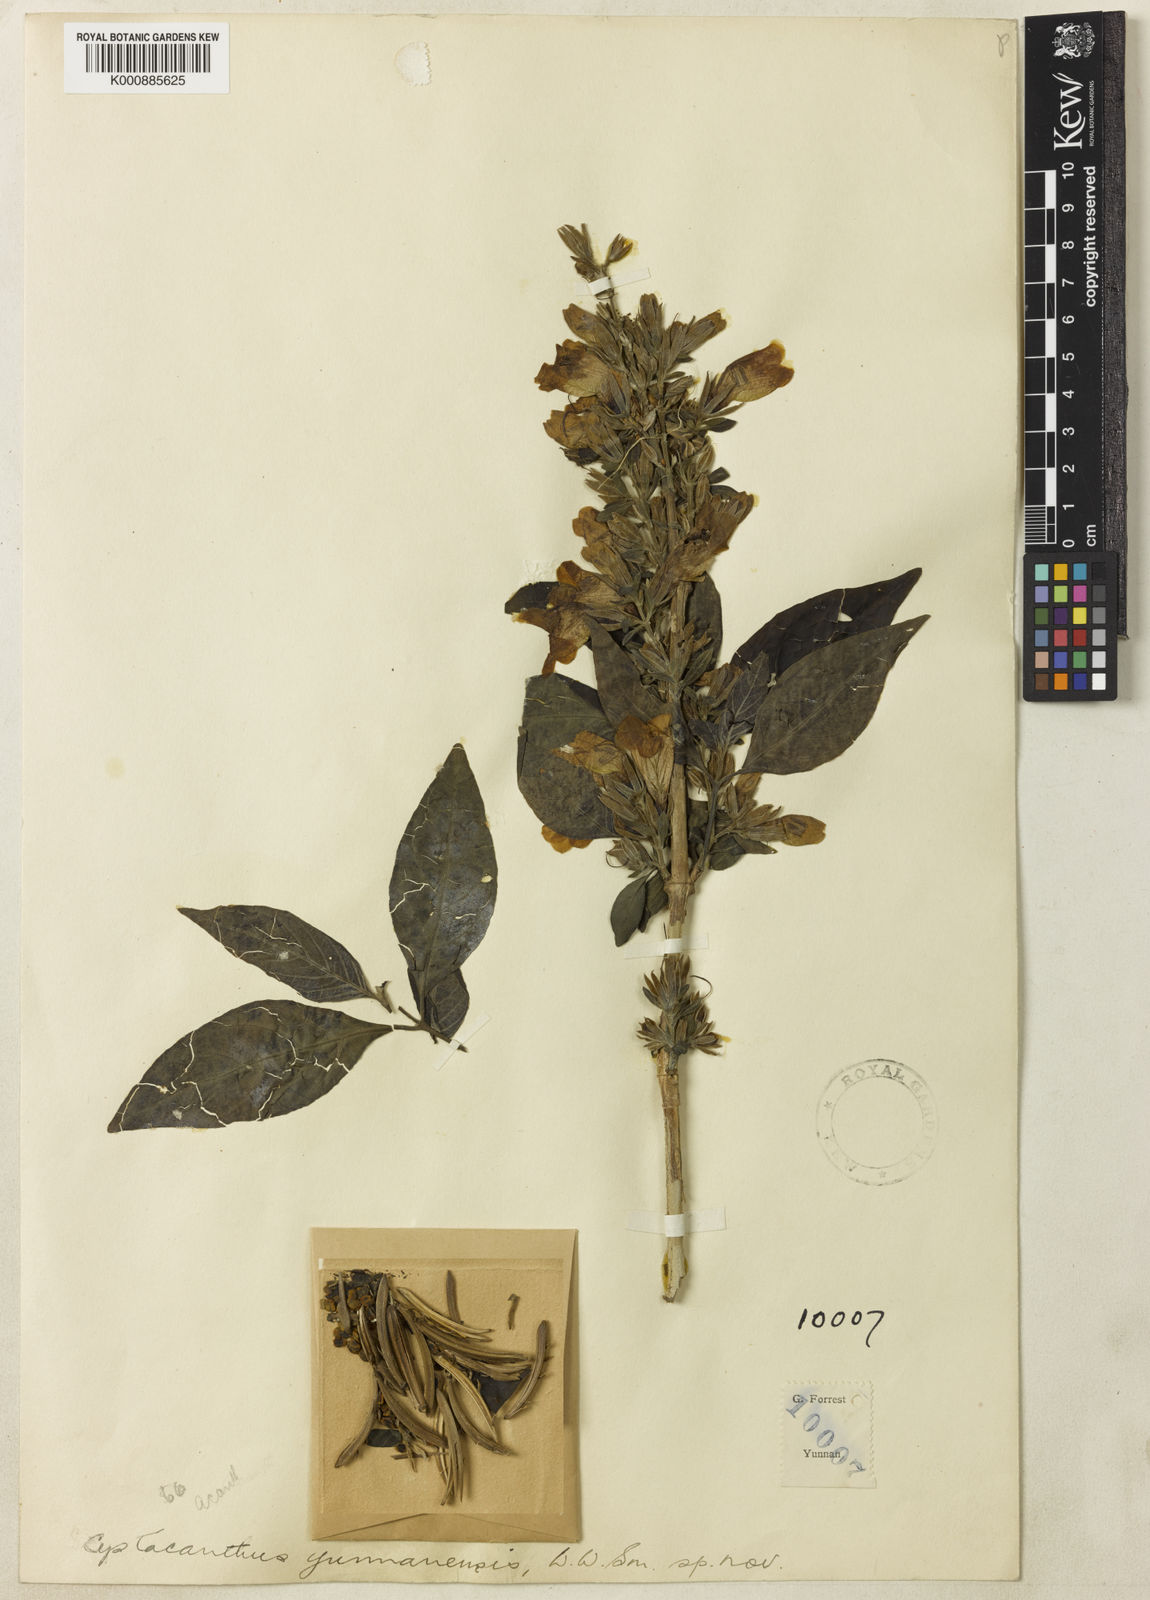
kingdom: Plantae
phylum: Tracheophyta
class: Magnoliopsida
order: Lamiales
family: Acanthaceae
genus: Phlogacanthus
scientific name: Phlogacanthus
